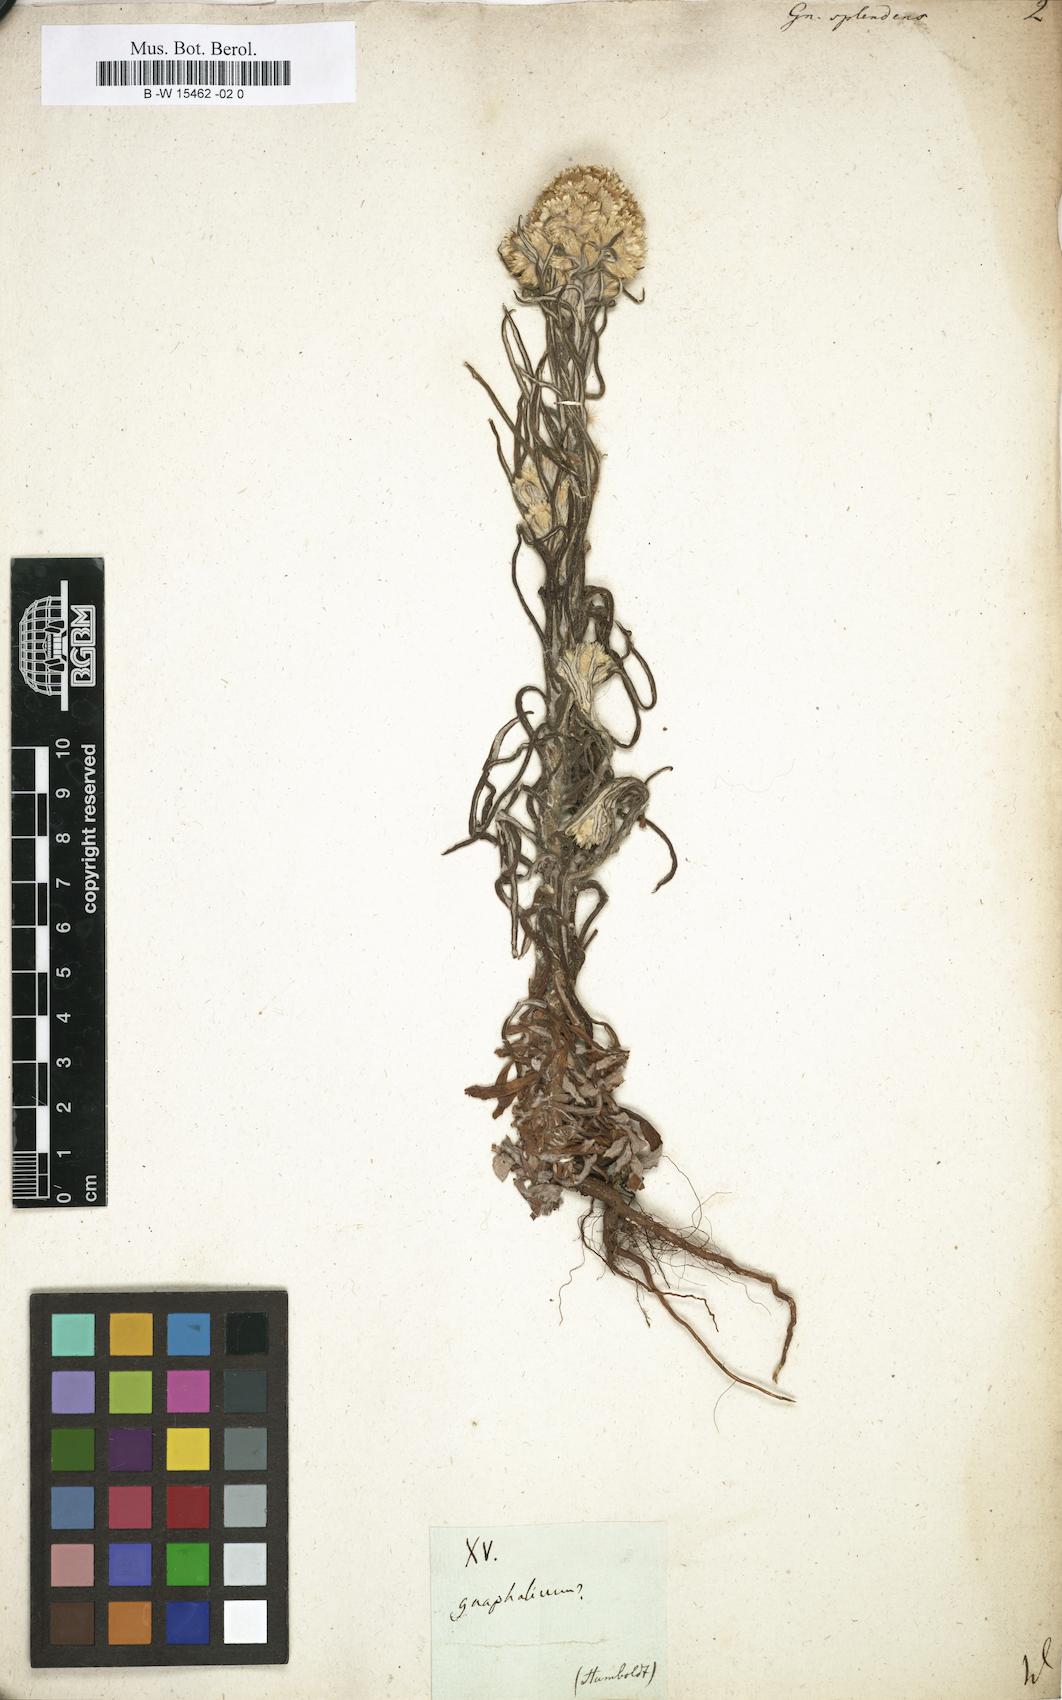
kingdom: Plantae
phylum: Tracheophyta
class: Magnoliopsida
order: Asterales
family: Asteraceae
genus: Gnaphalium
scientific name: Gnaphalium splendens
